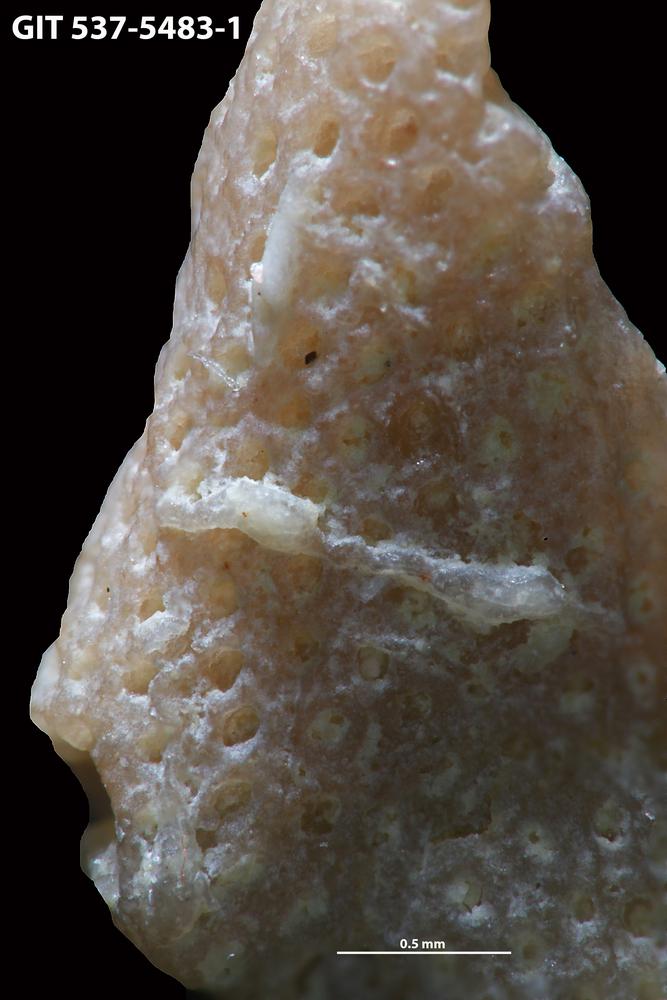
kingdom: Animalia
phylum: Bryozoa
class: Stenolaemata
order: Cyclostomatida
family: Corynotrypidae
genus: Corynotrypa
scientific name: Corynotrypa
